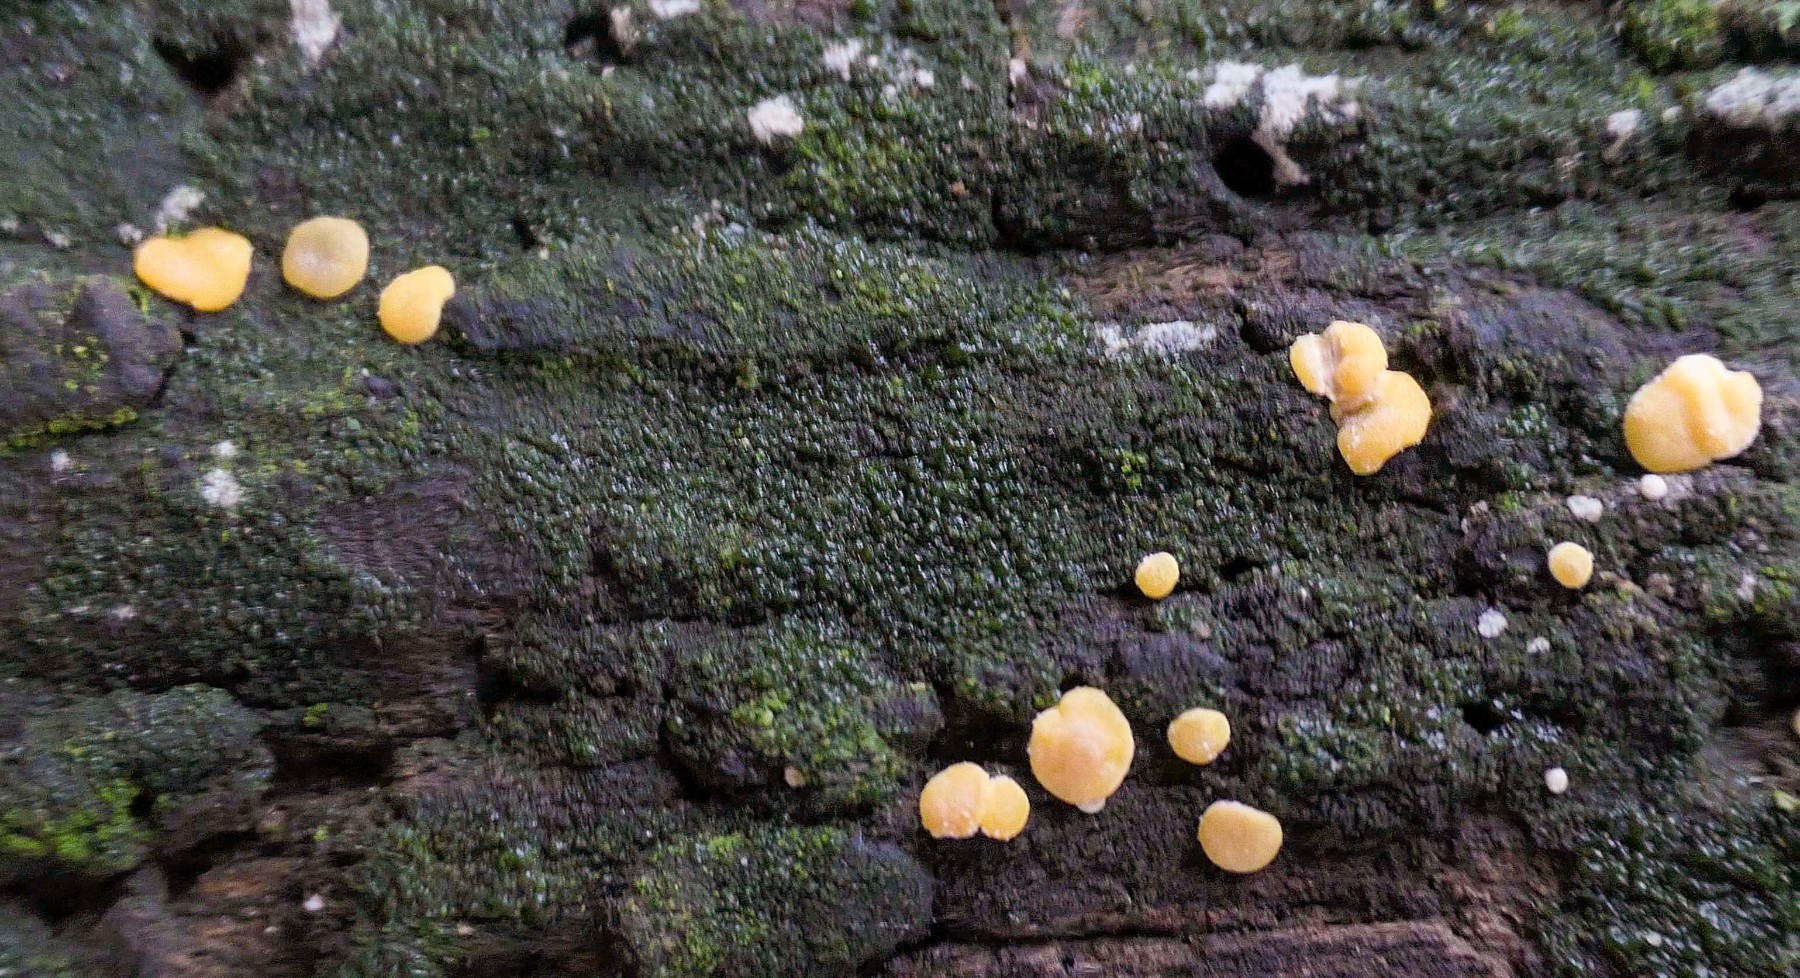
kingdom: Fungi
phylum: Ascomycota
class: Sordariomycetes
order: Hypocreales
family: Hypocreaceae
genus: Trichoderma
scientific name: Trichoderma aureoviride
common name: æggegul kødkerne
